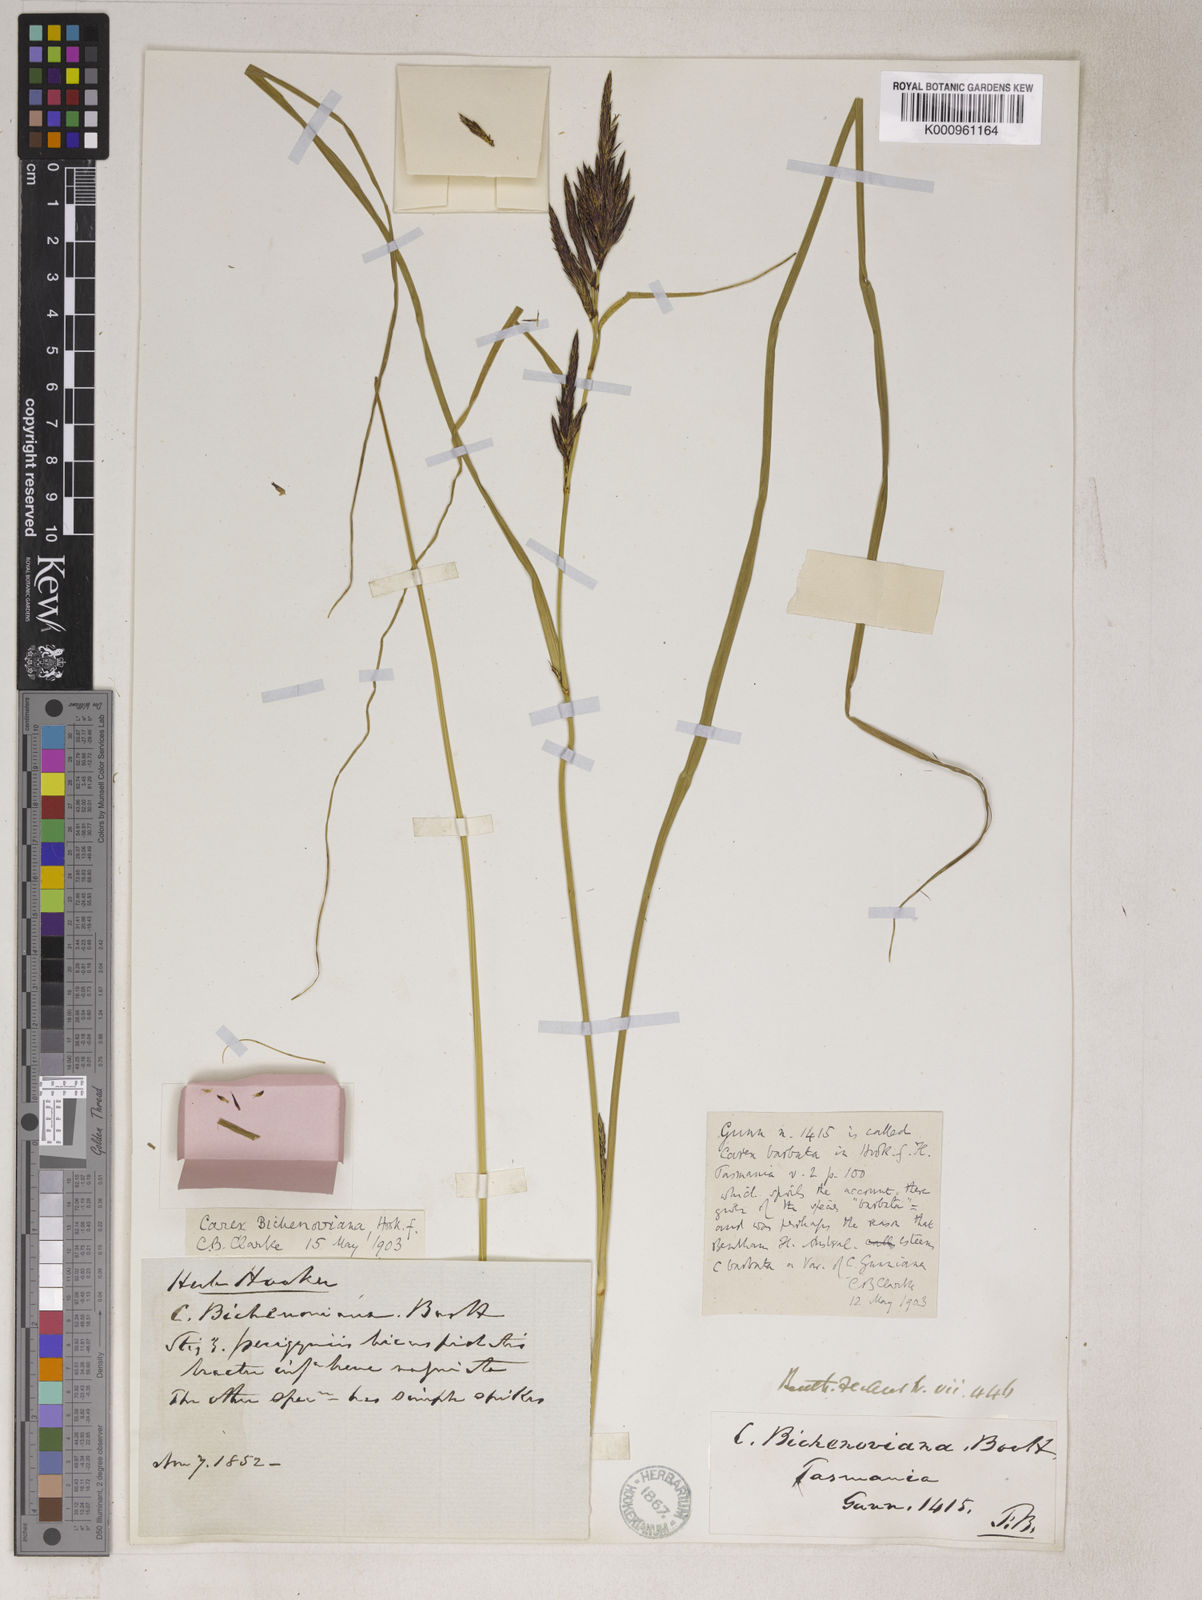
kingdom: Plantae
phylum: Tracheophyta
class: Liliopsida
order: Poales
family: Cyperaceae
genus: Carex
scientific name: Carex bichenoviana
